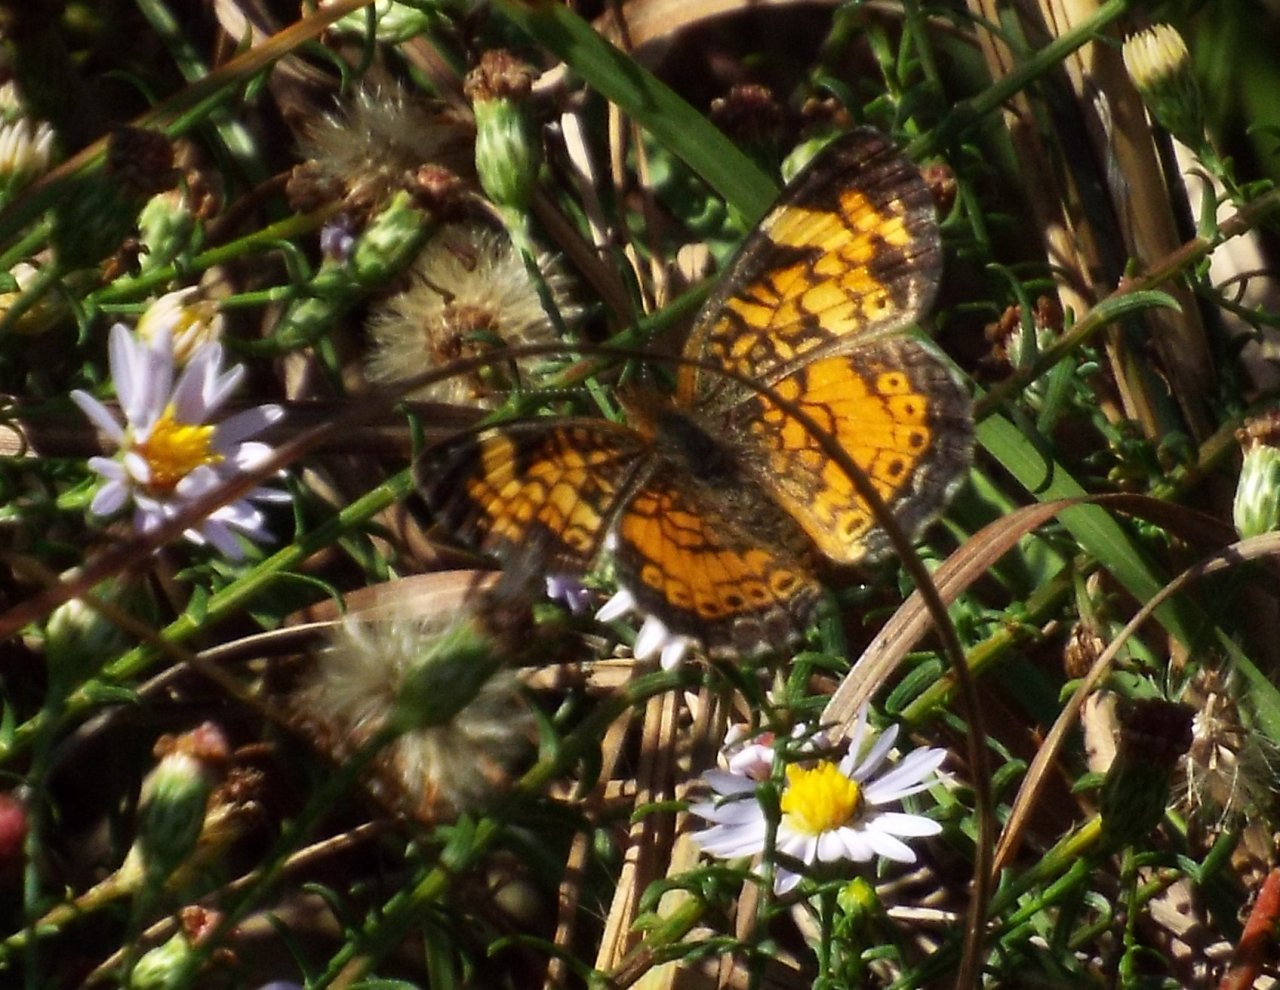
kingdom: Animalia
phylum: Arthropoda
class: Insecta
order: Lepidoptera
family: Nymphalidae
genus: Phyciodes
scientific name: Phyciodes tharos
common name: Pearl Crescent
